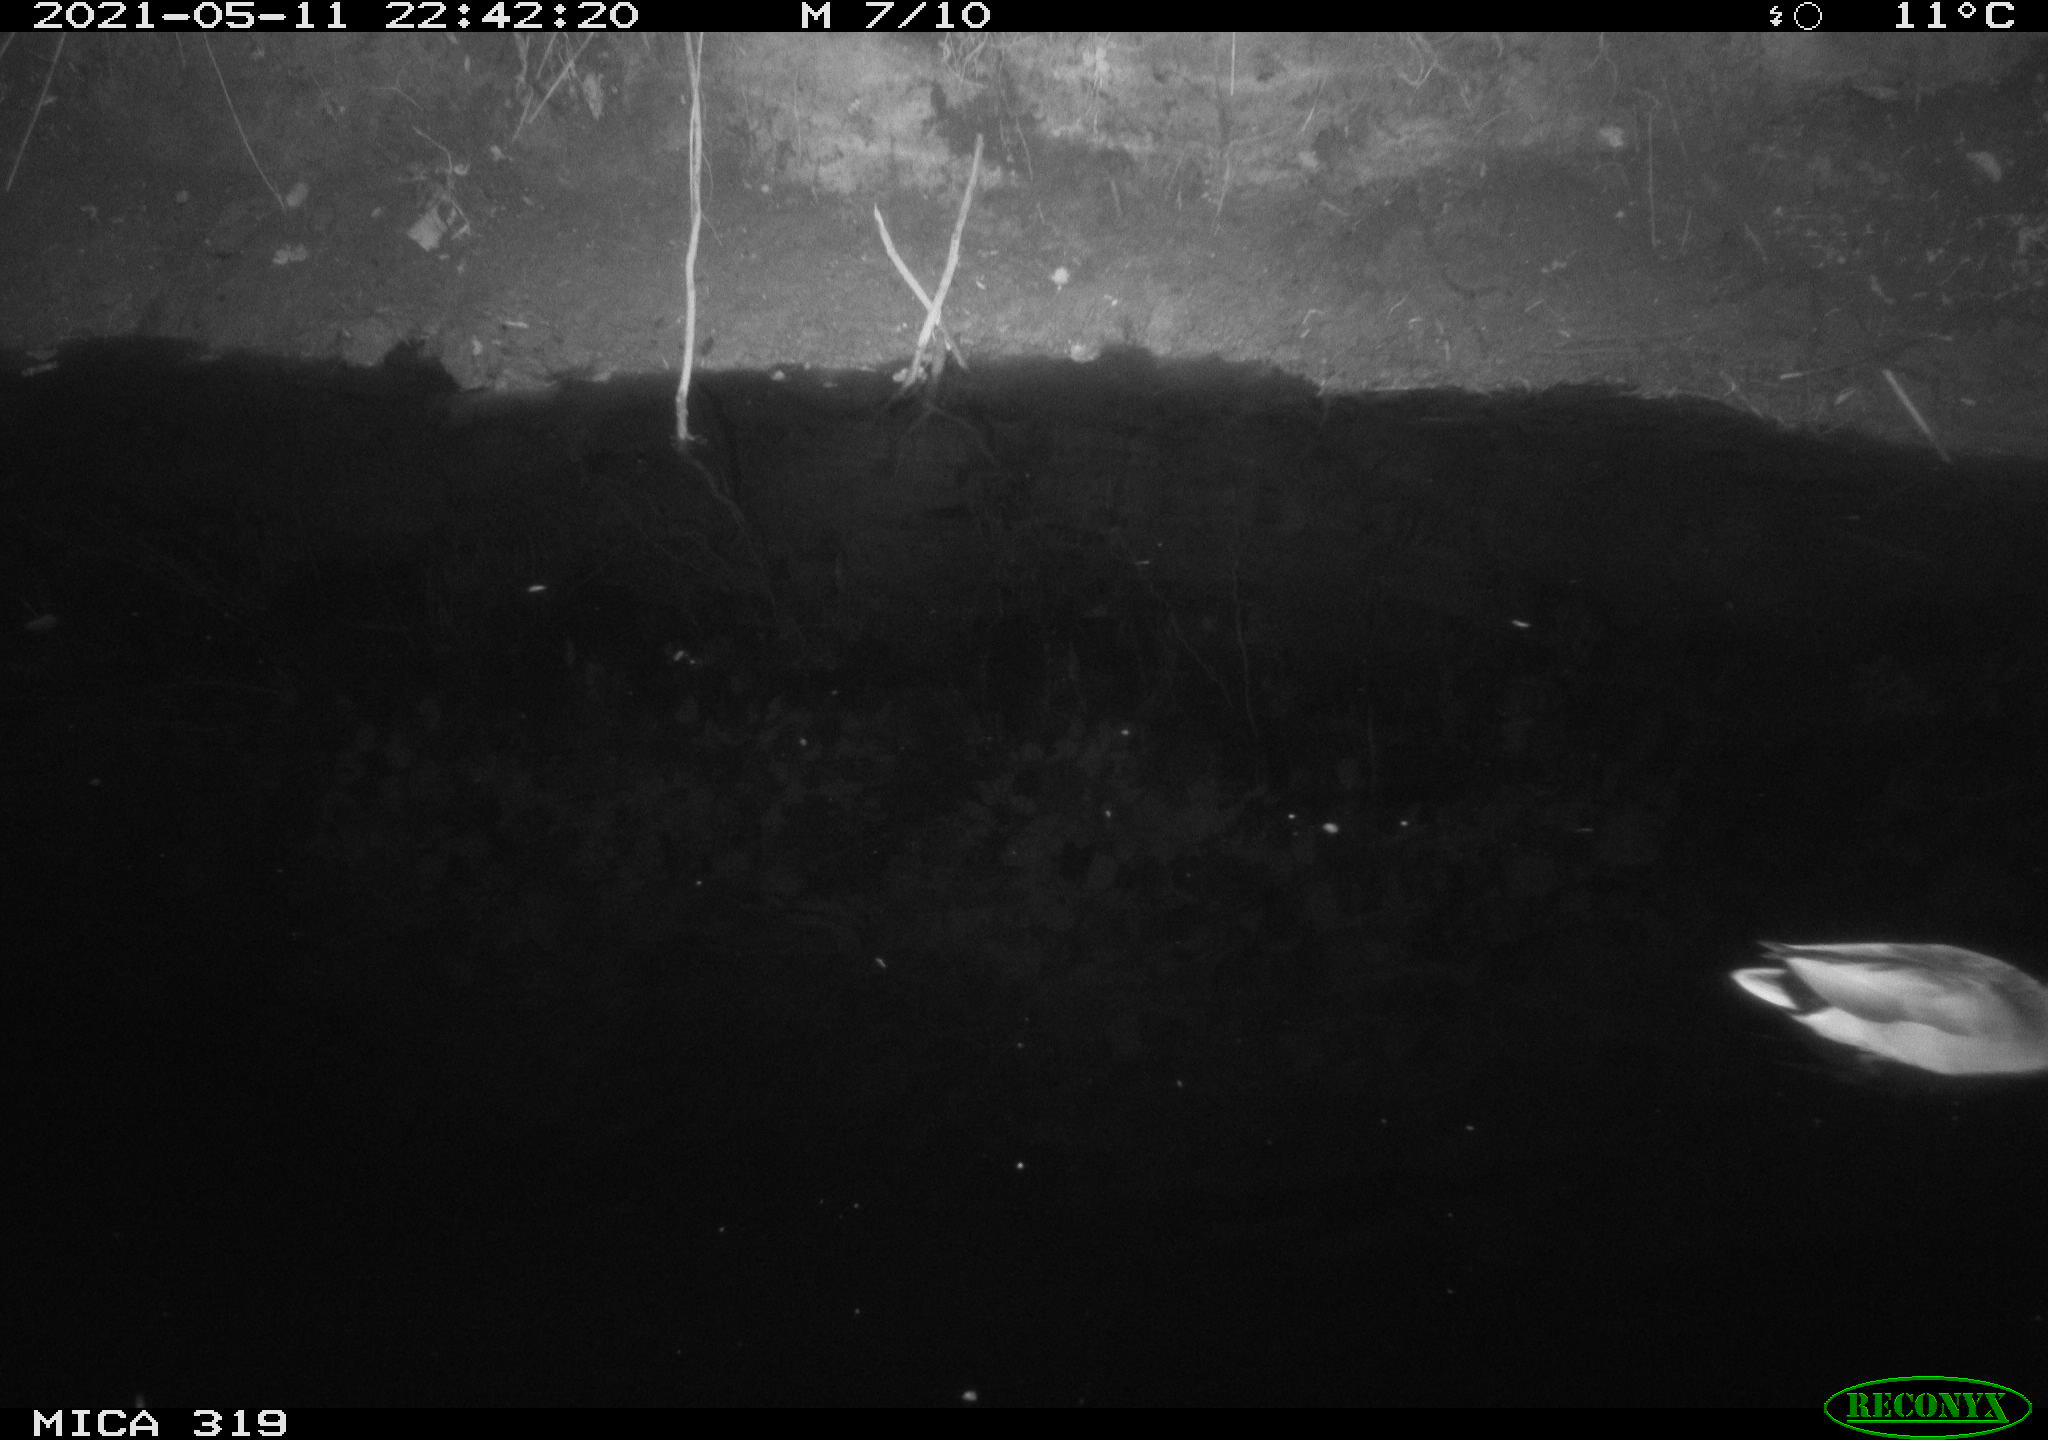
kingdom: Animalia
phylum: Chordata
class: Aves
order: Anseriformes
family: Anatidae
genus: Anas
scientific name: Anas platyrhynchos
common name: Mallard
